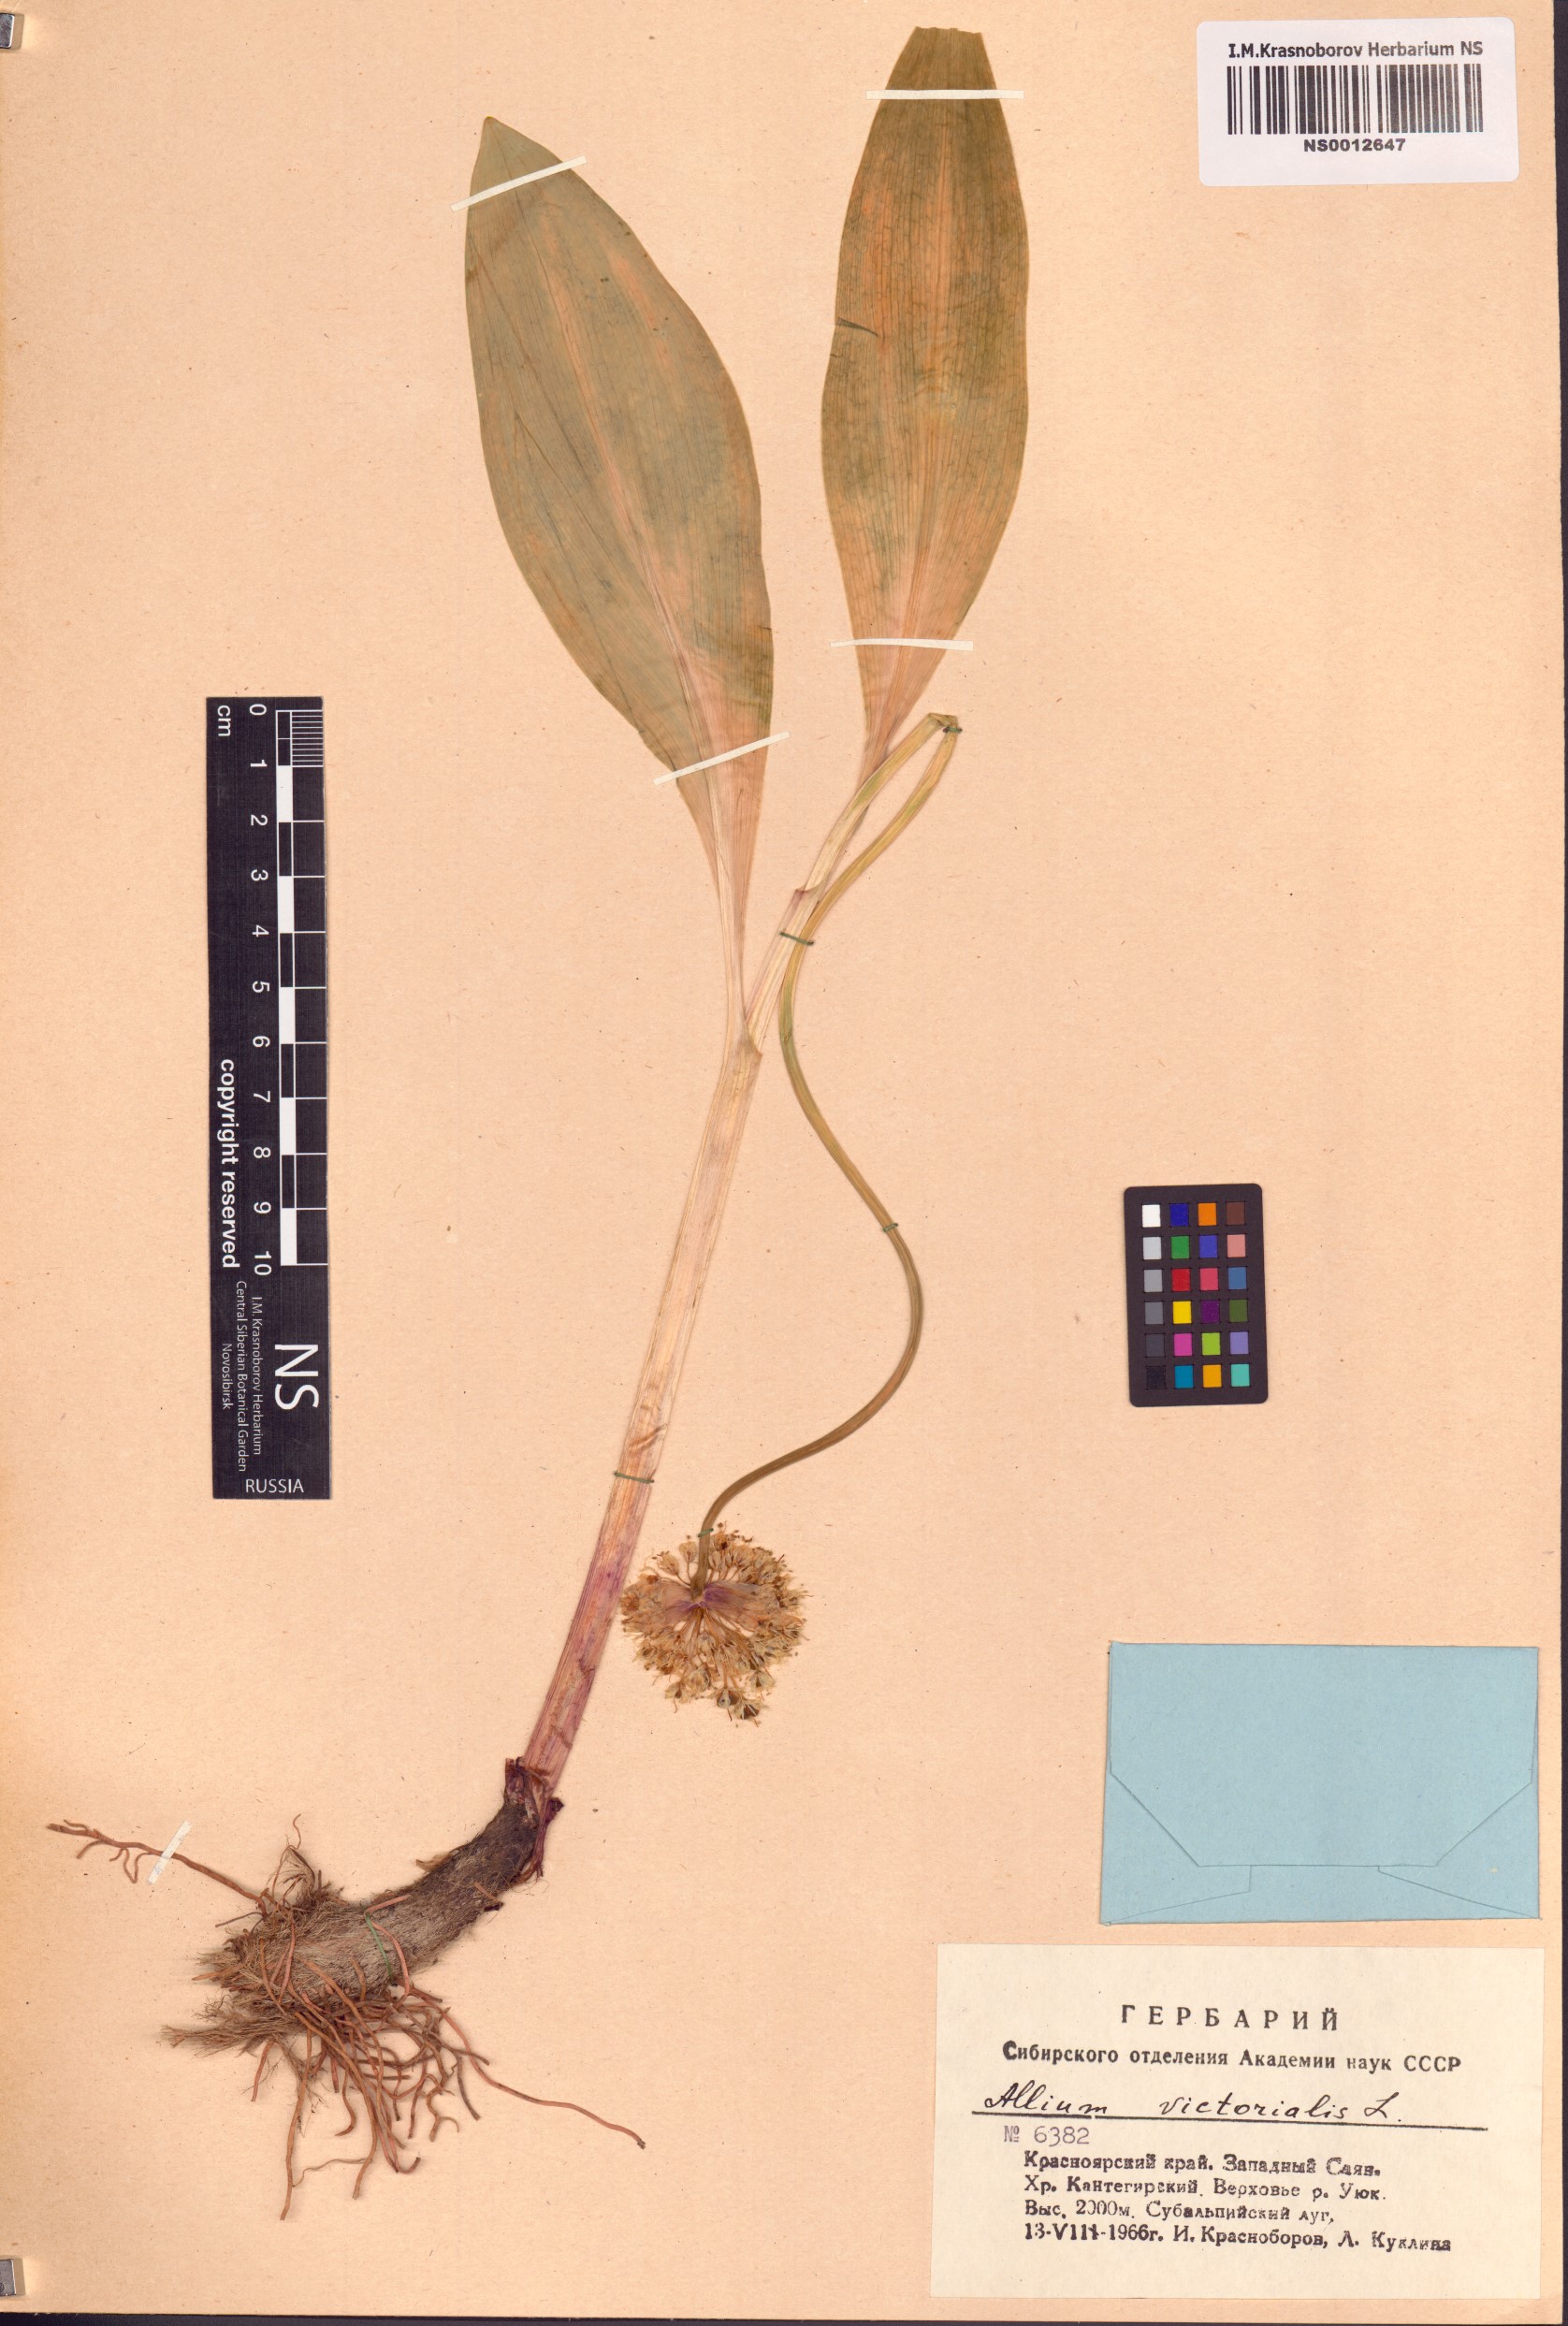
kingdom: Plantae
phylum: Tracheophyta
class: Liliopsida
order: Asparagales
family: Amaryllidaceae
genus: Allium
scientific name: Allium microdictyon
